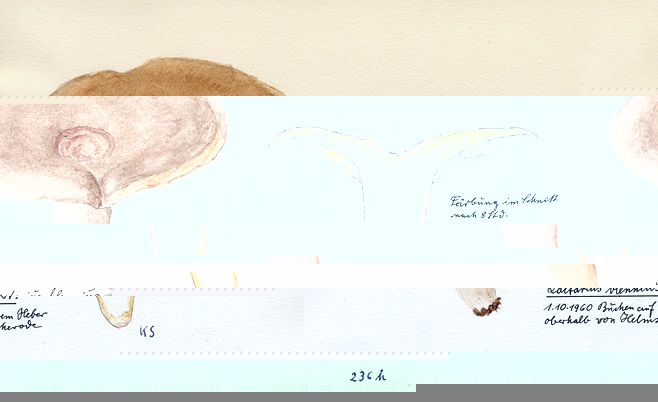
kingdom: Fungi
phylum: Basidiomycota
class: Agaricomycetes
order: Russulales
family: Russulaceae
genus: Lactarius
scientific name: Lactarius blennius
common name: Beech milkcap
